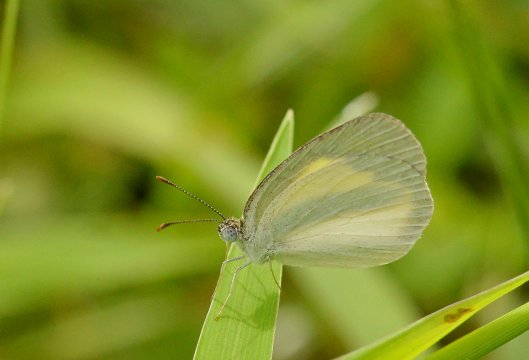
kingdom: Animalia
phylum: Arthropoda
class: Insecta
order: Lepidoptera
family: Pieridae
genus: Eurema
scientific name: Eurema daira
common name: Barred Yellow
